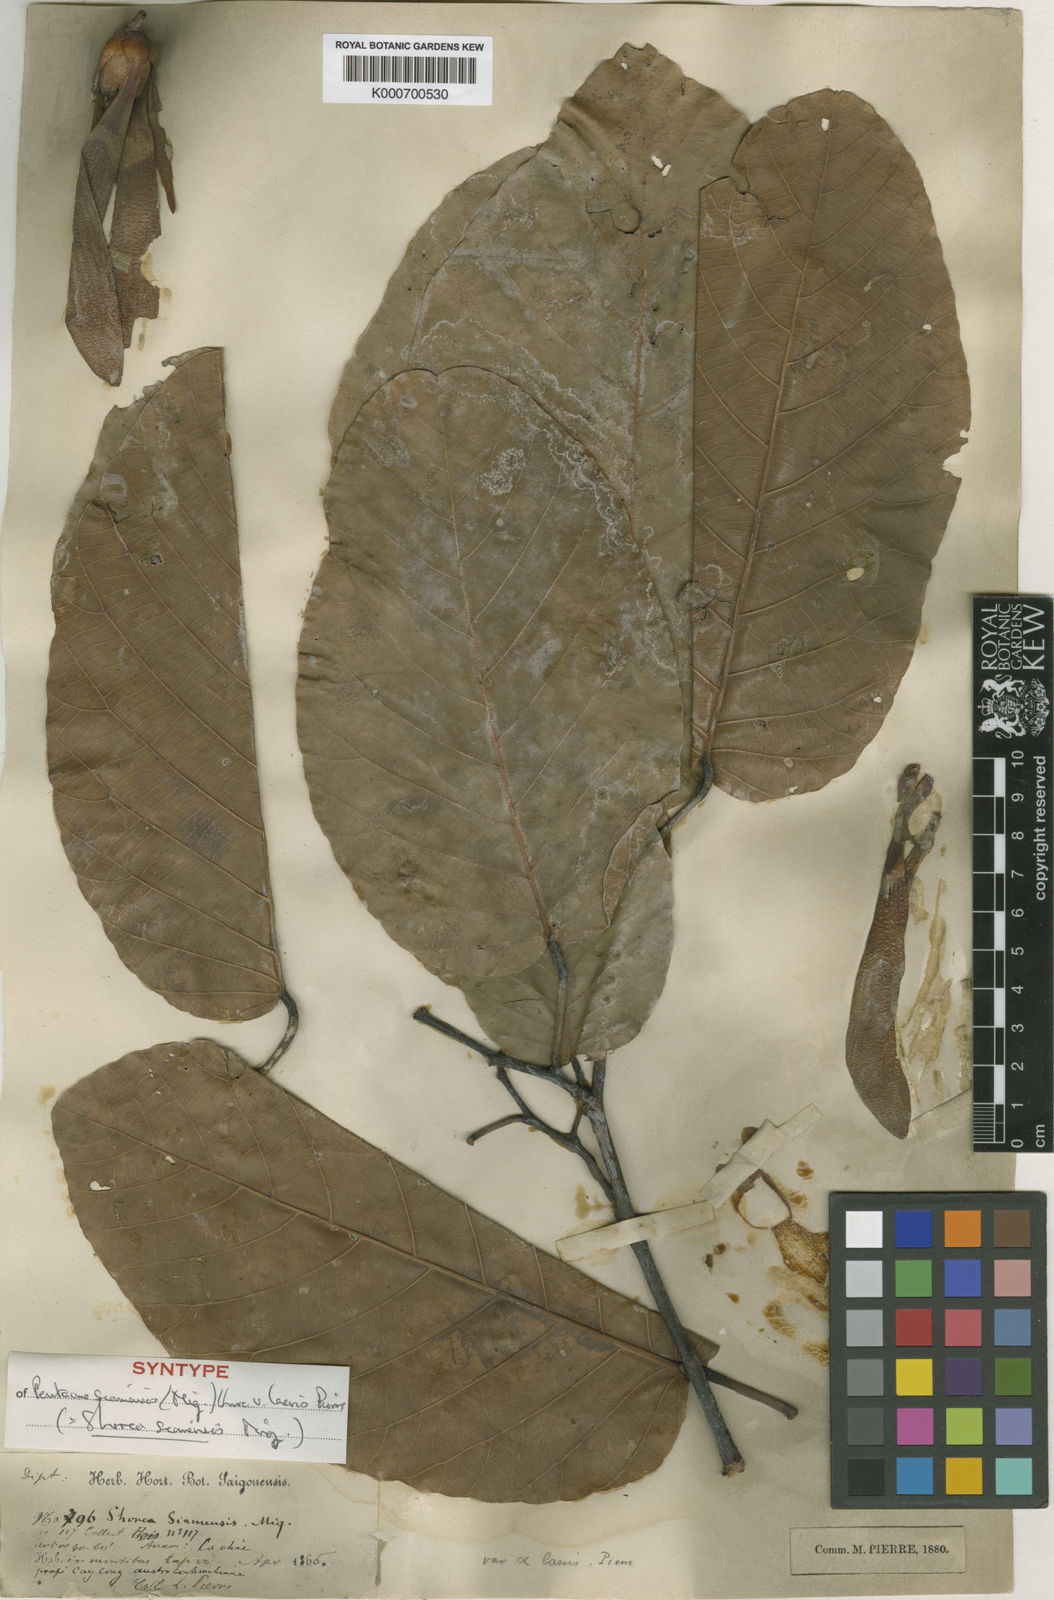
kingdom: Plantae
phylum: Tracheophyta
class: Magnoliopsida
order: Malvales
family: Dipterocarpaceae
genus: Pentacme
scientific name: Pentacme siamensis
